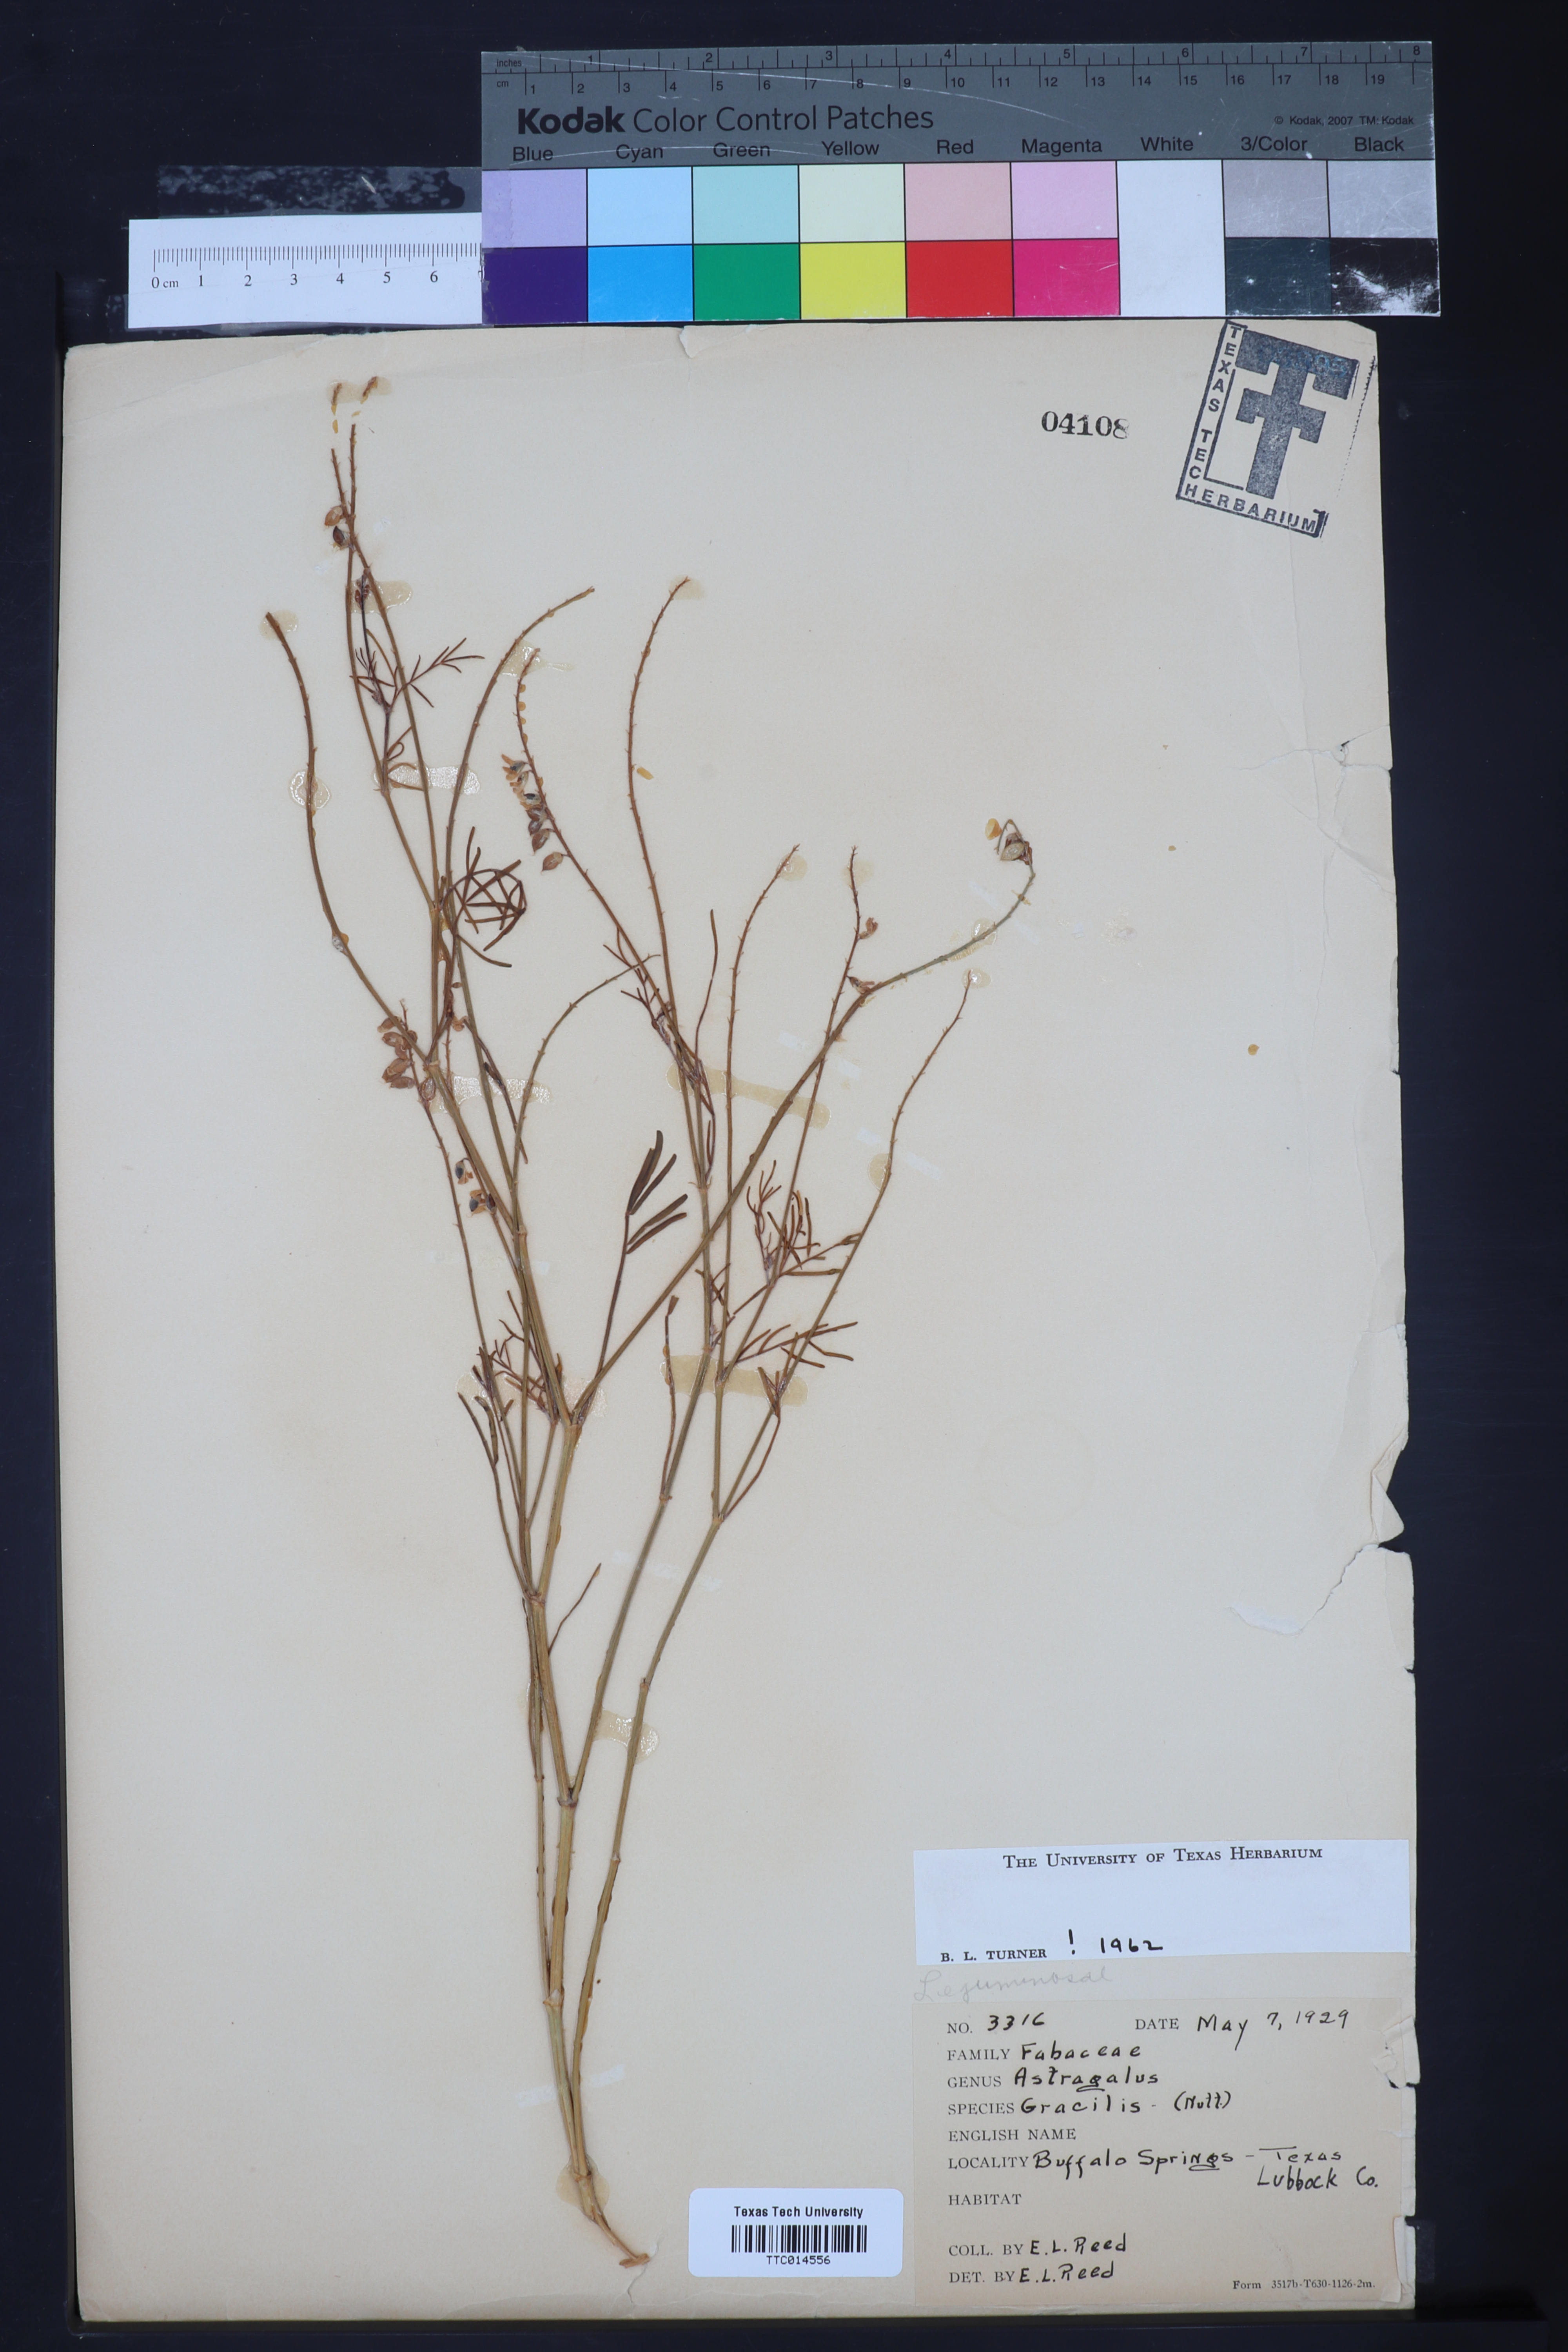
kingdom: Plantae
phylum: Tracheophyta
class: Magnoliopsida
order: Fabales
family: Fabaceae
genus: Astragalus
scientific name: Astragalus gracilis
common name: Slender milk-vetch
